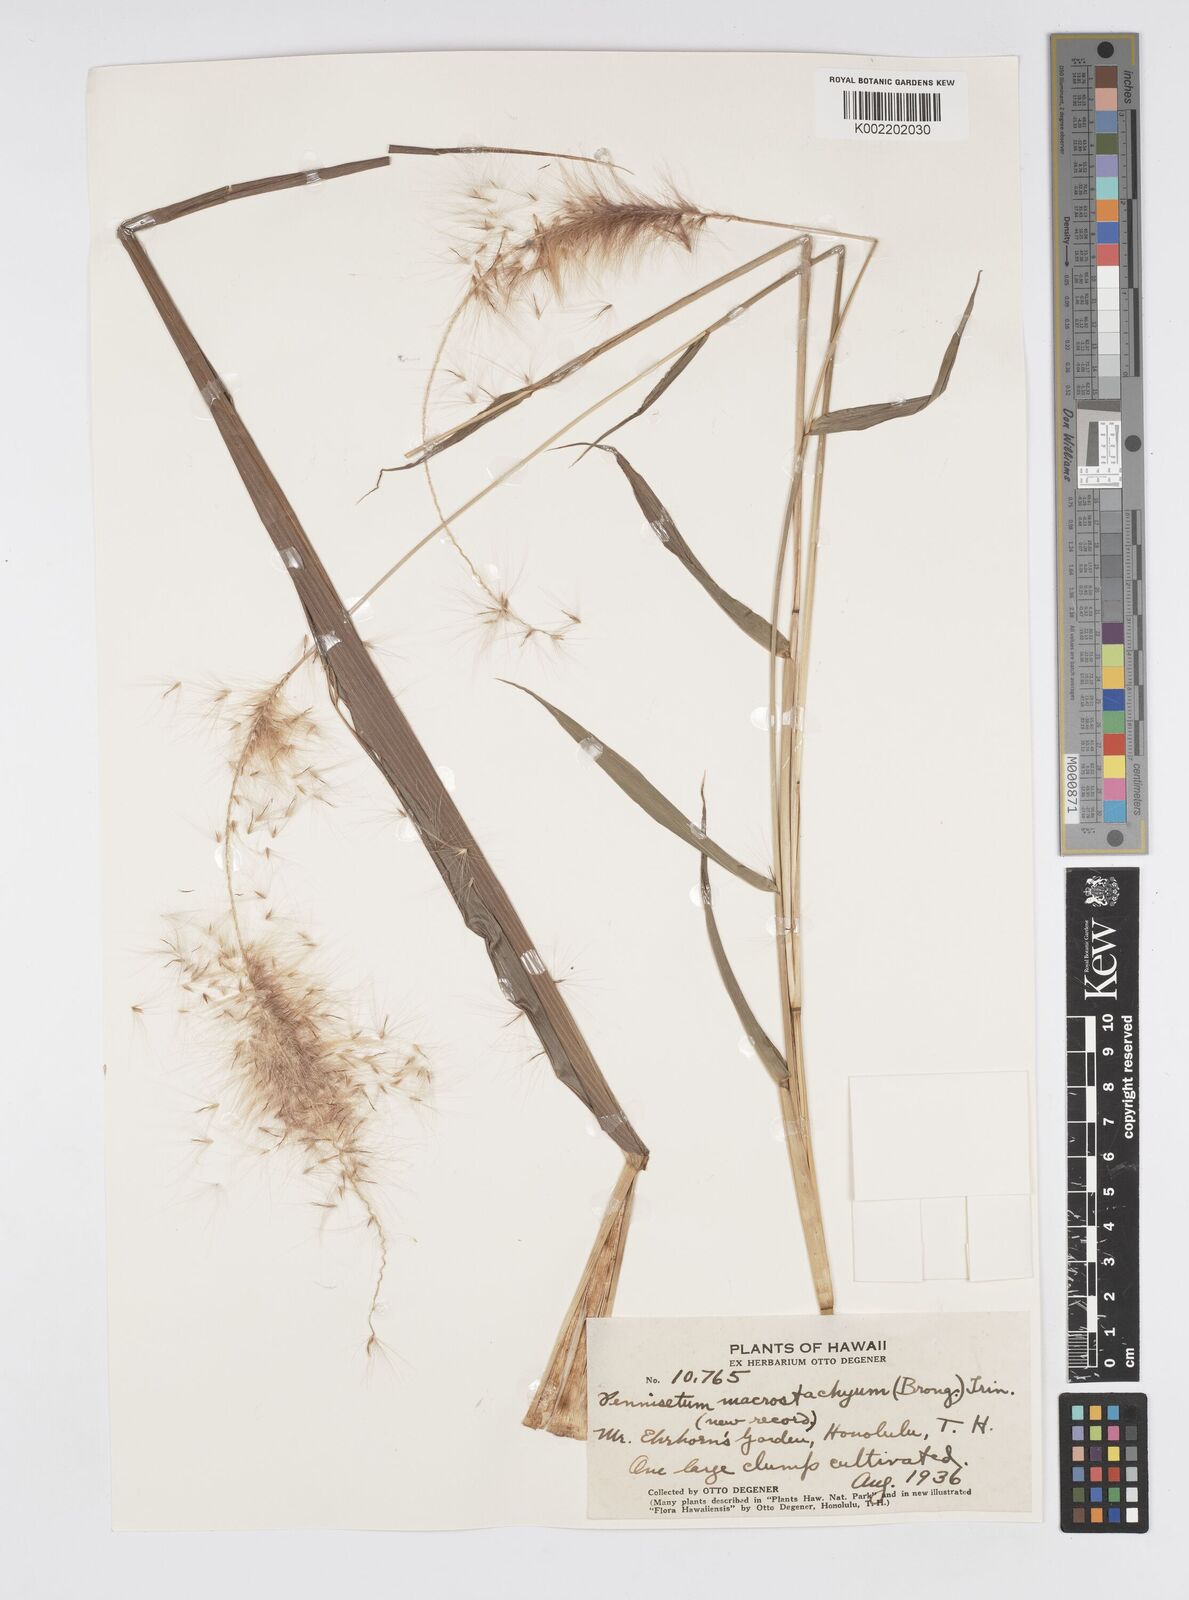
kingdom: Plantae
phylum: Tracheophyta
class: Liliopsida
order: Poales
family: Poaceae
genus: Cenchrus
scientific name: Cenchrus purpureus
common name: Elephant grass
